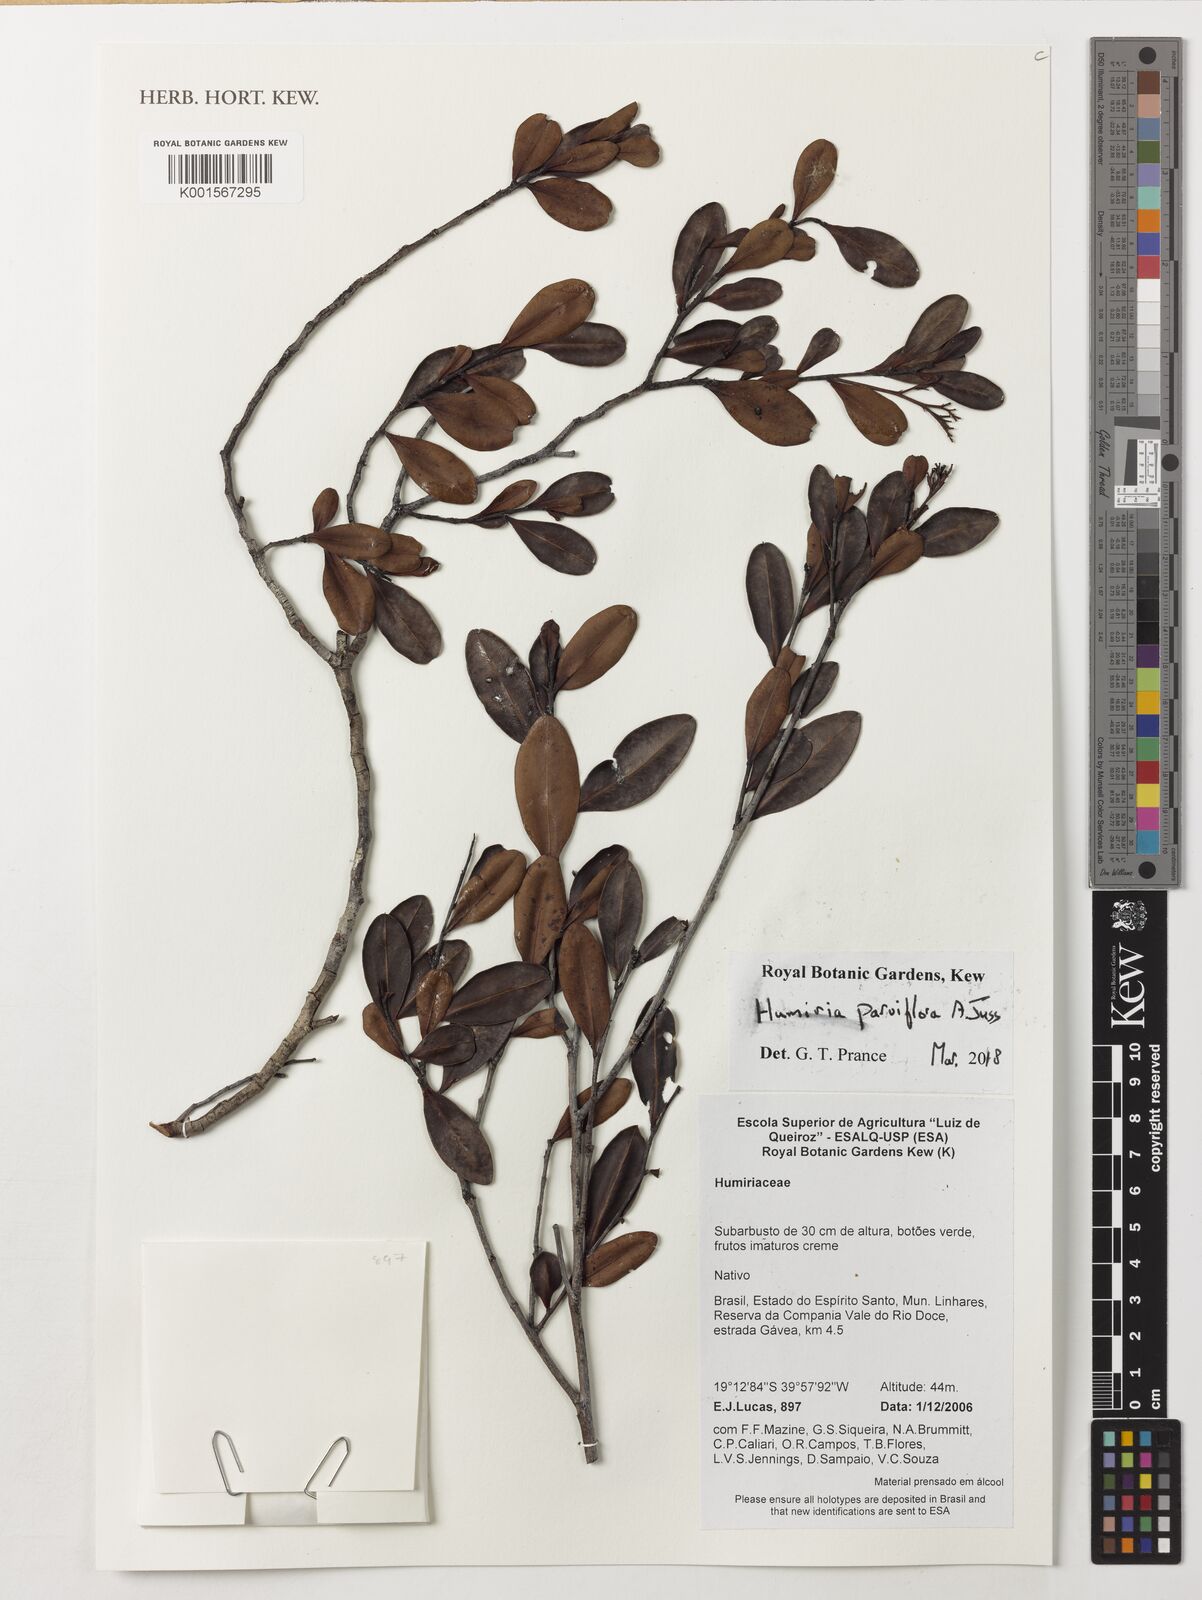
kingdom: Plantae
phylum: Tracheophyta
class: Magnoliopsida
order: Malpighiales
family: Humiriaceae
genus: Humiria
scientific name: Humiria balsamifera
